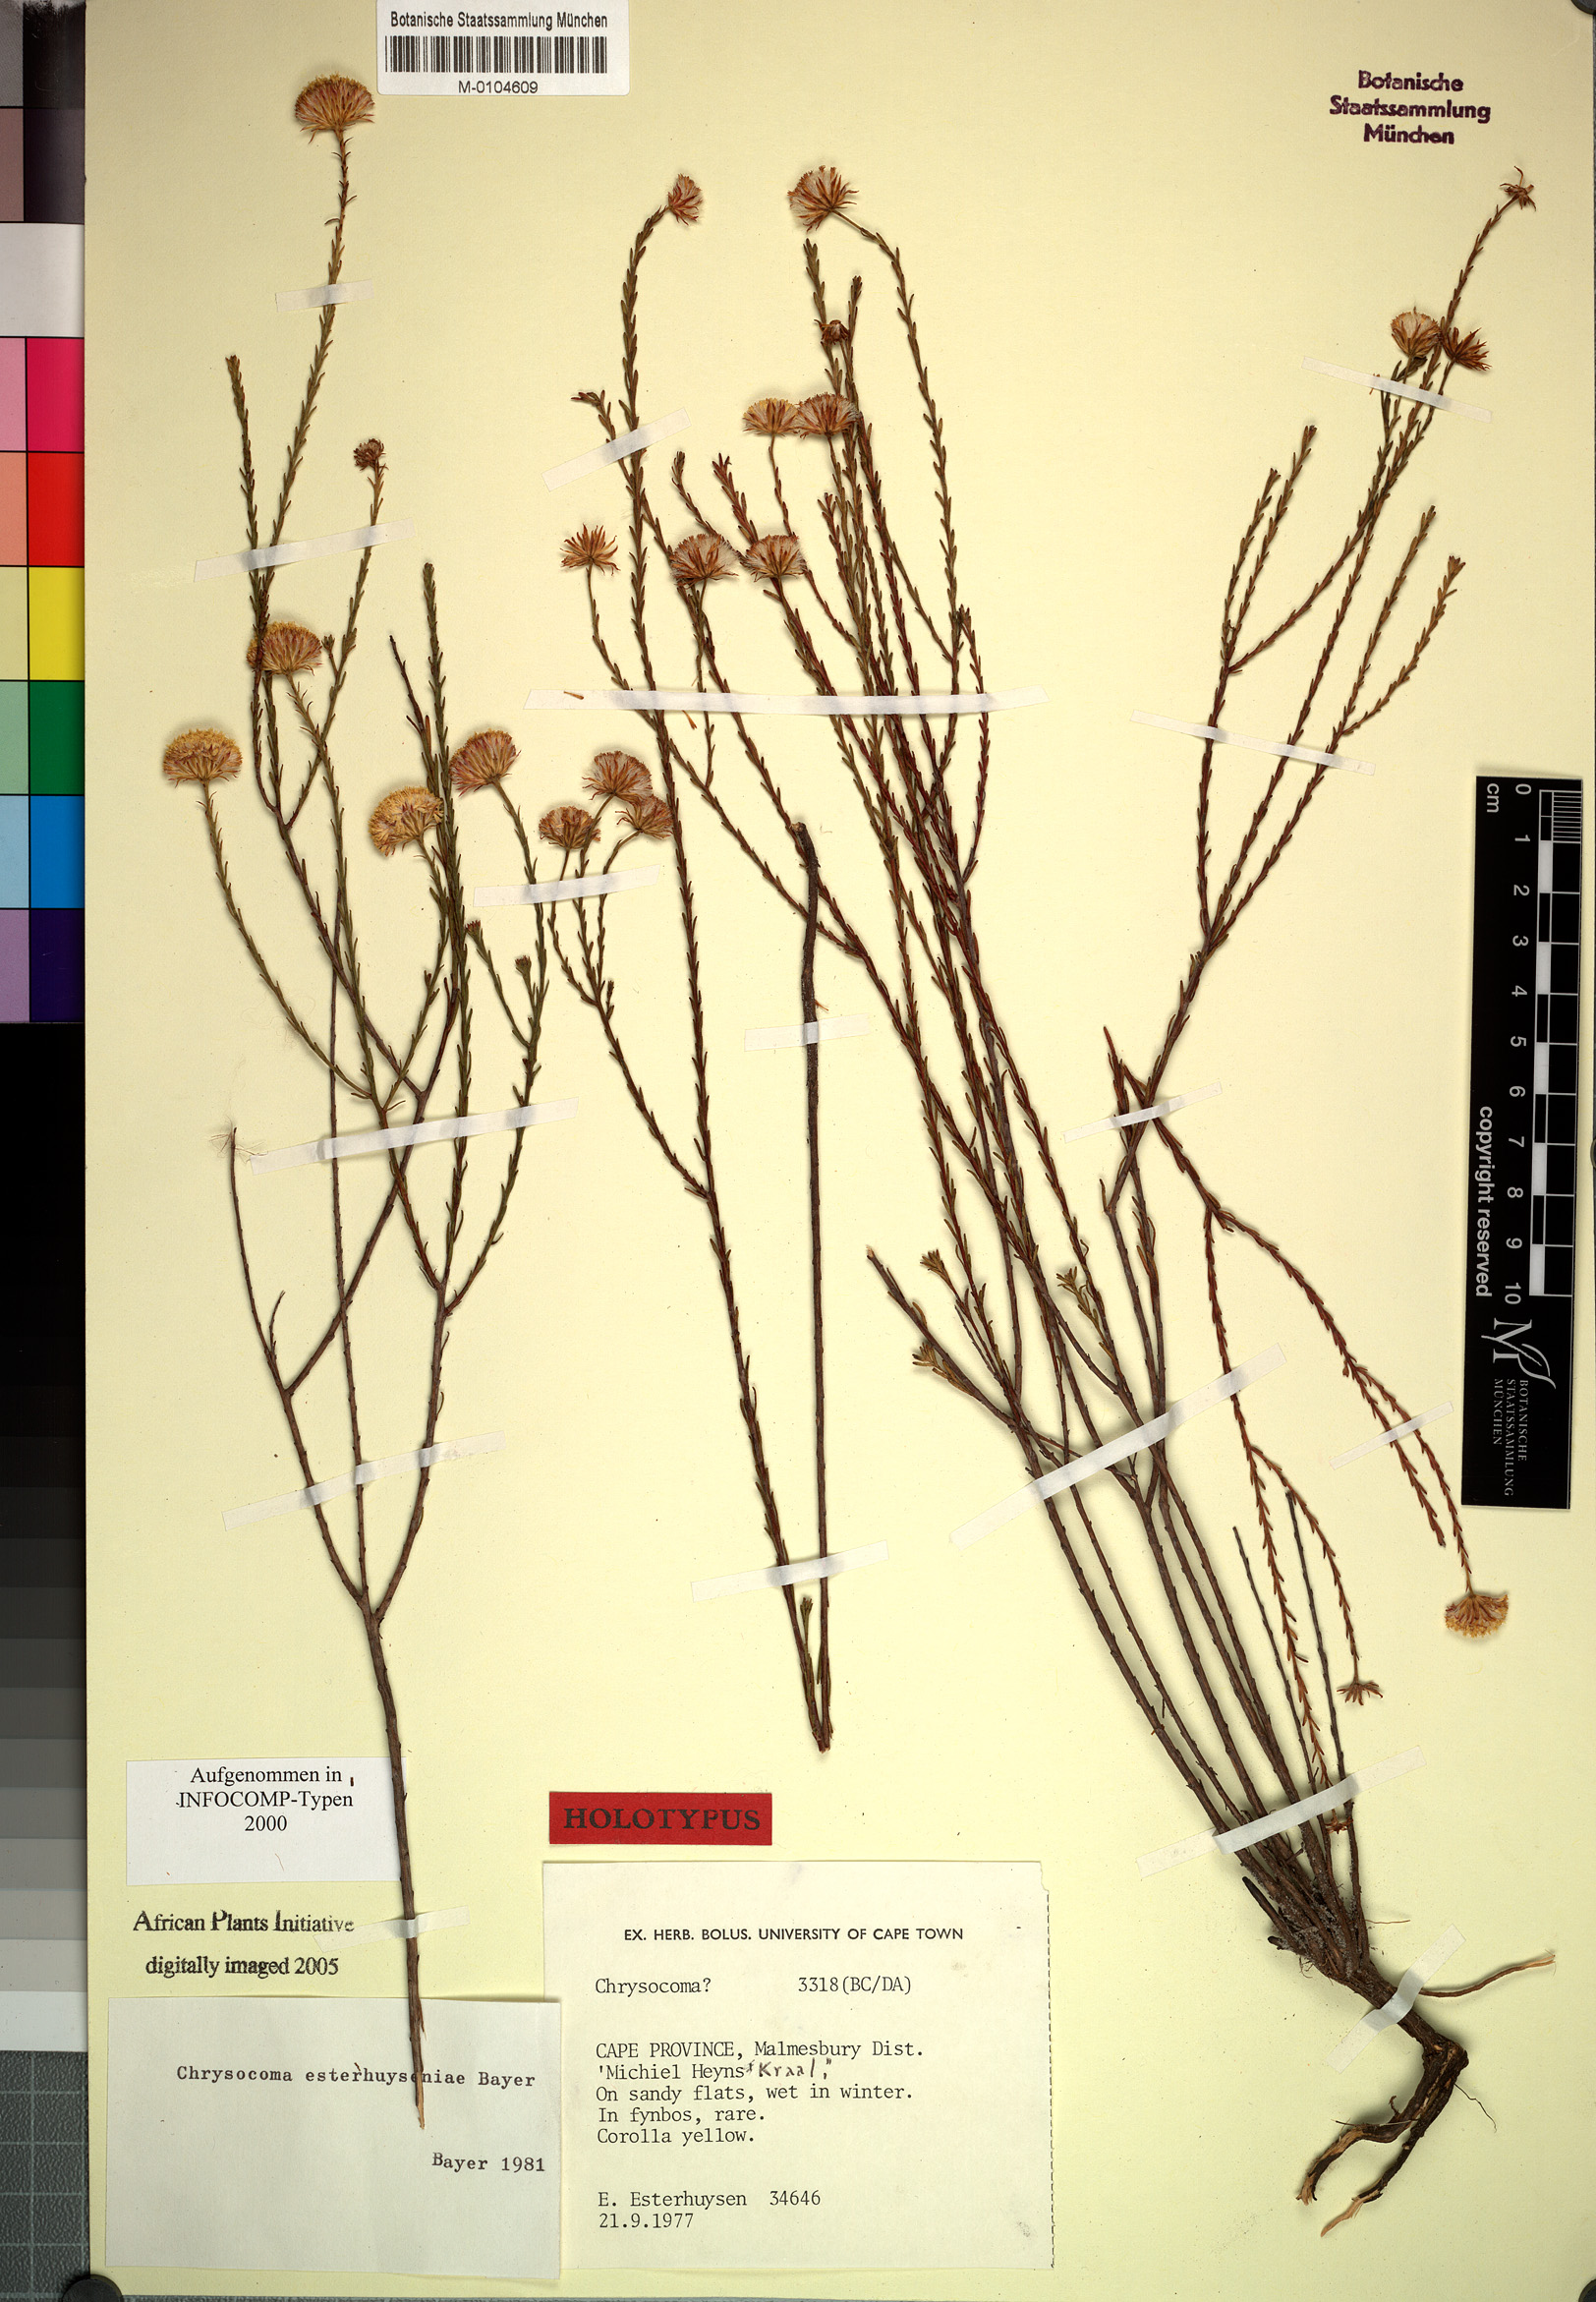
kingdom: Plantae
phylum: Tracheophyta
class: Magnoliopsida
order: Asterales
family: Asteraceae
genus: Chrysocoma
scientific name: Chrysocoma esterhuyseniae
